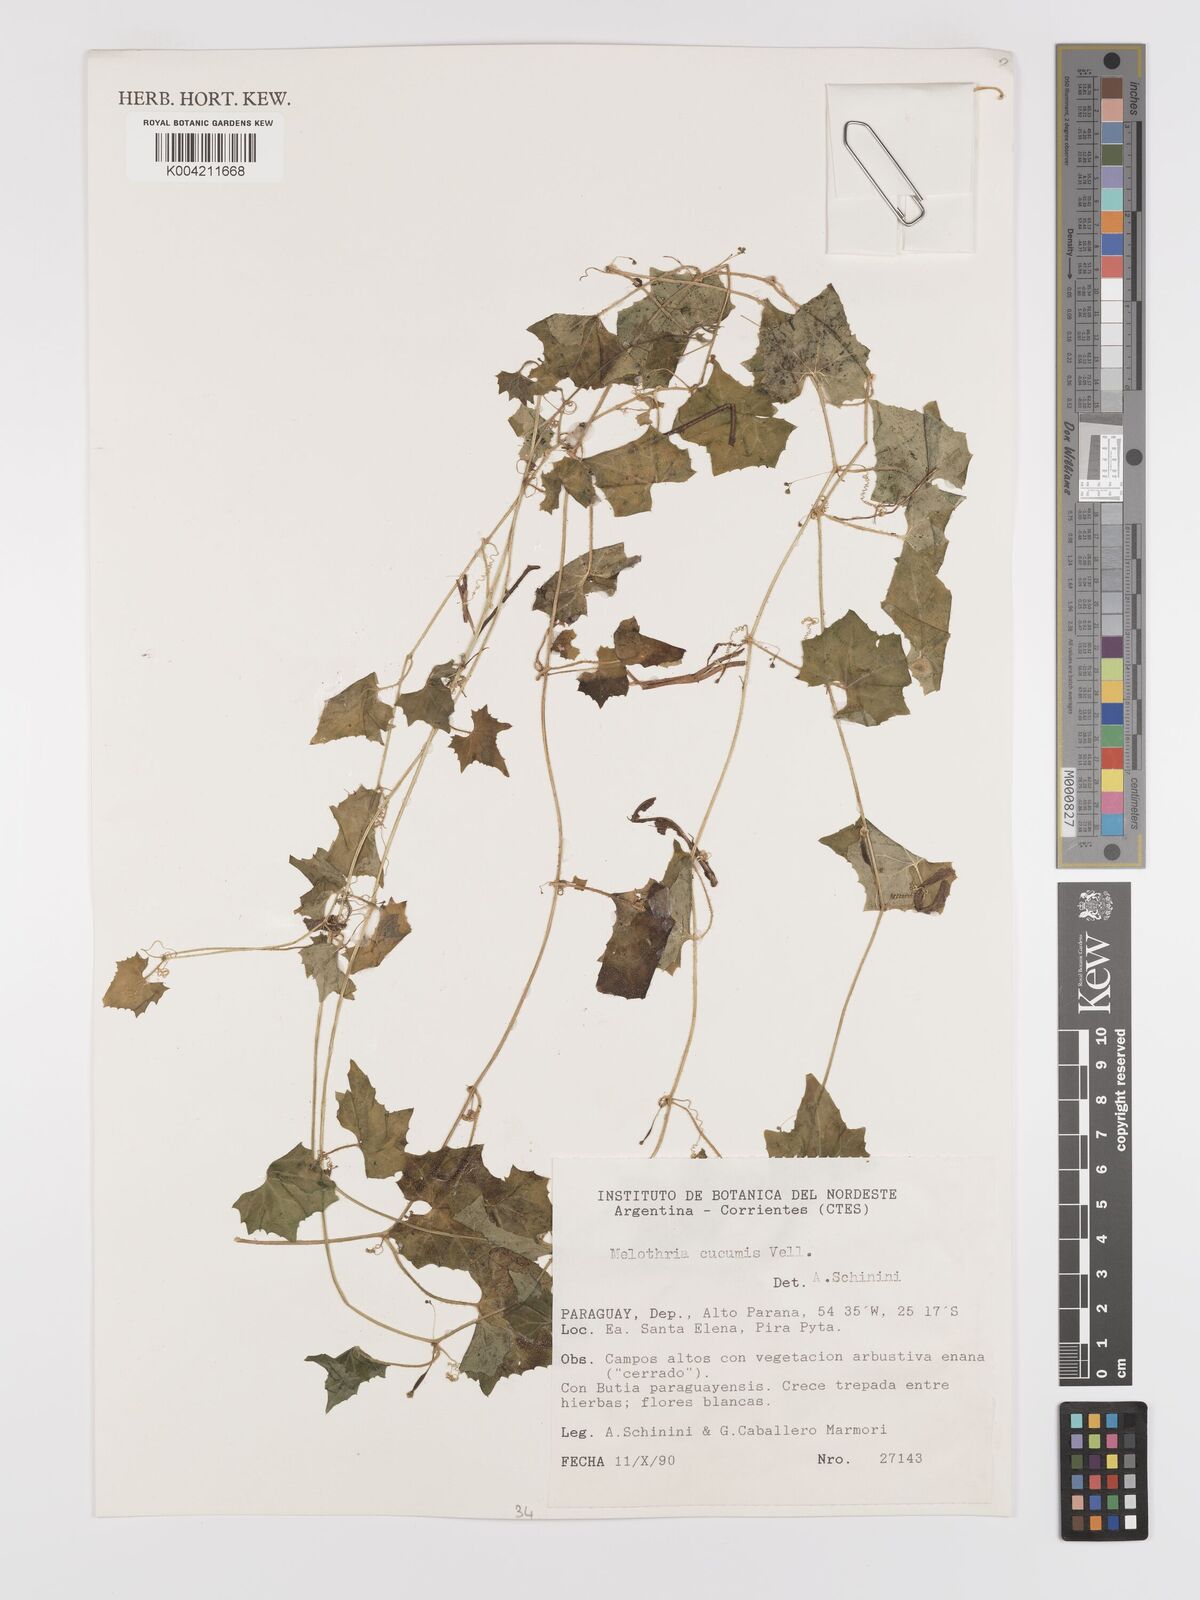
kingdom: Plantae
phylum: Tracheophyta
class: Magnoliopsida
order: Cucurbitales
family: Cucurbitaceae
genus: Melothria
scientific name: Melothria cucumis
